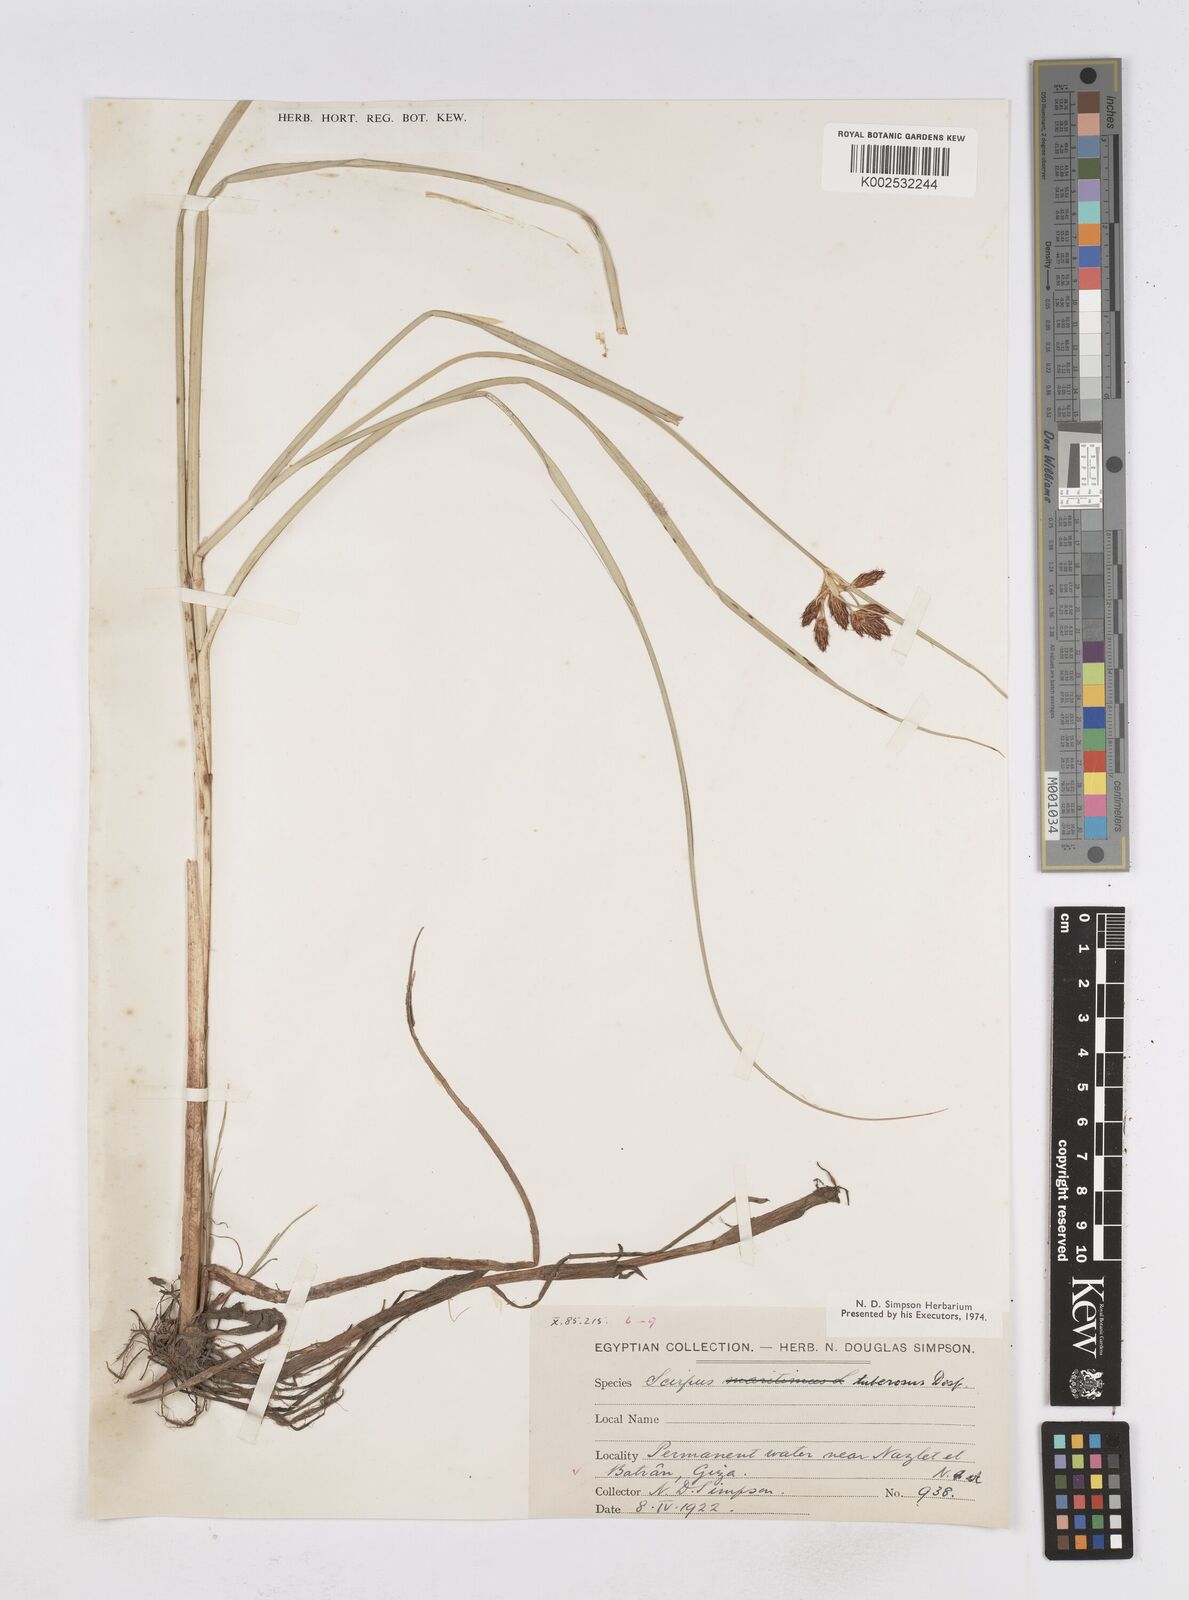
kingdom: Plantae
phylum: Tracheophyta
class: Liliopsida
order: Poales
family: Cyperaceae
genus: Bolboschoenus
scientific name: Bolboschoenus maritimus
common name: Sea club-rush
